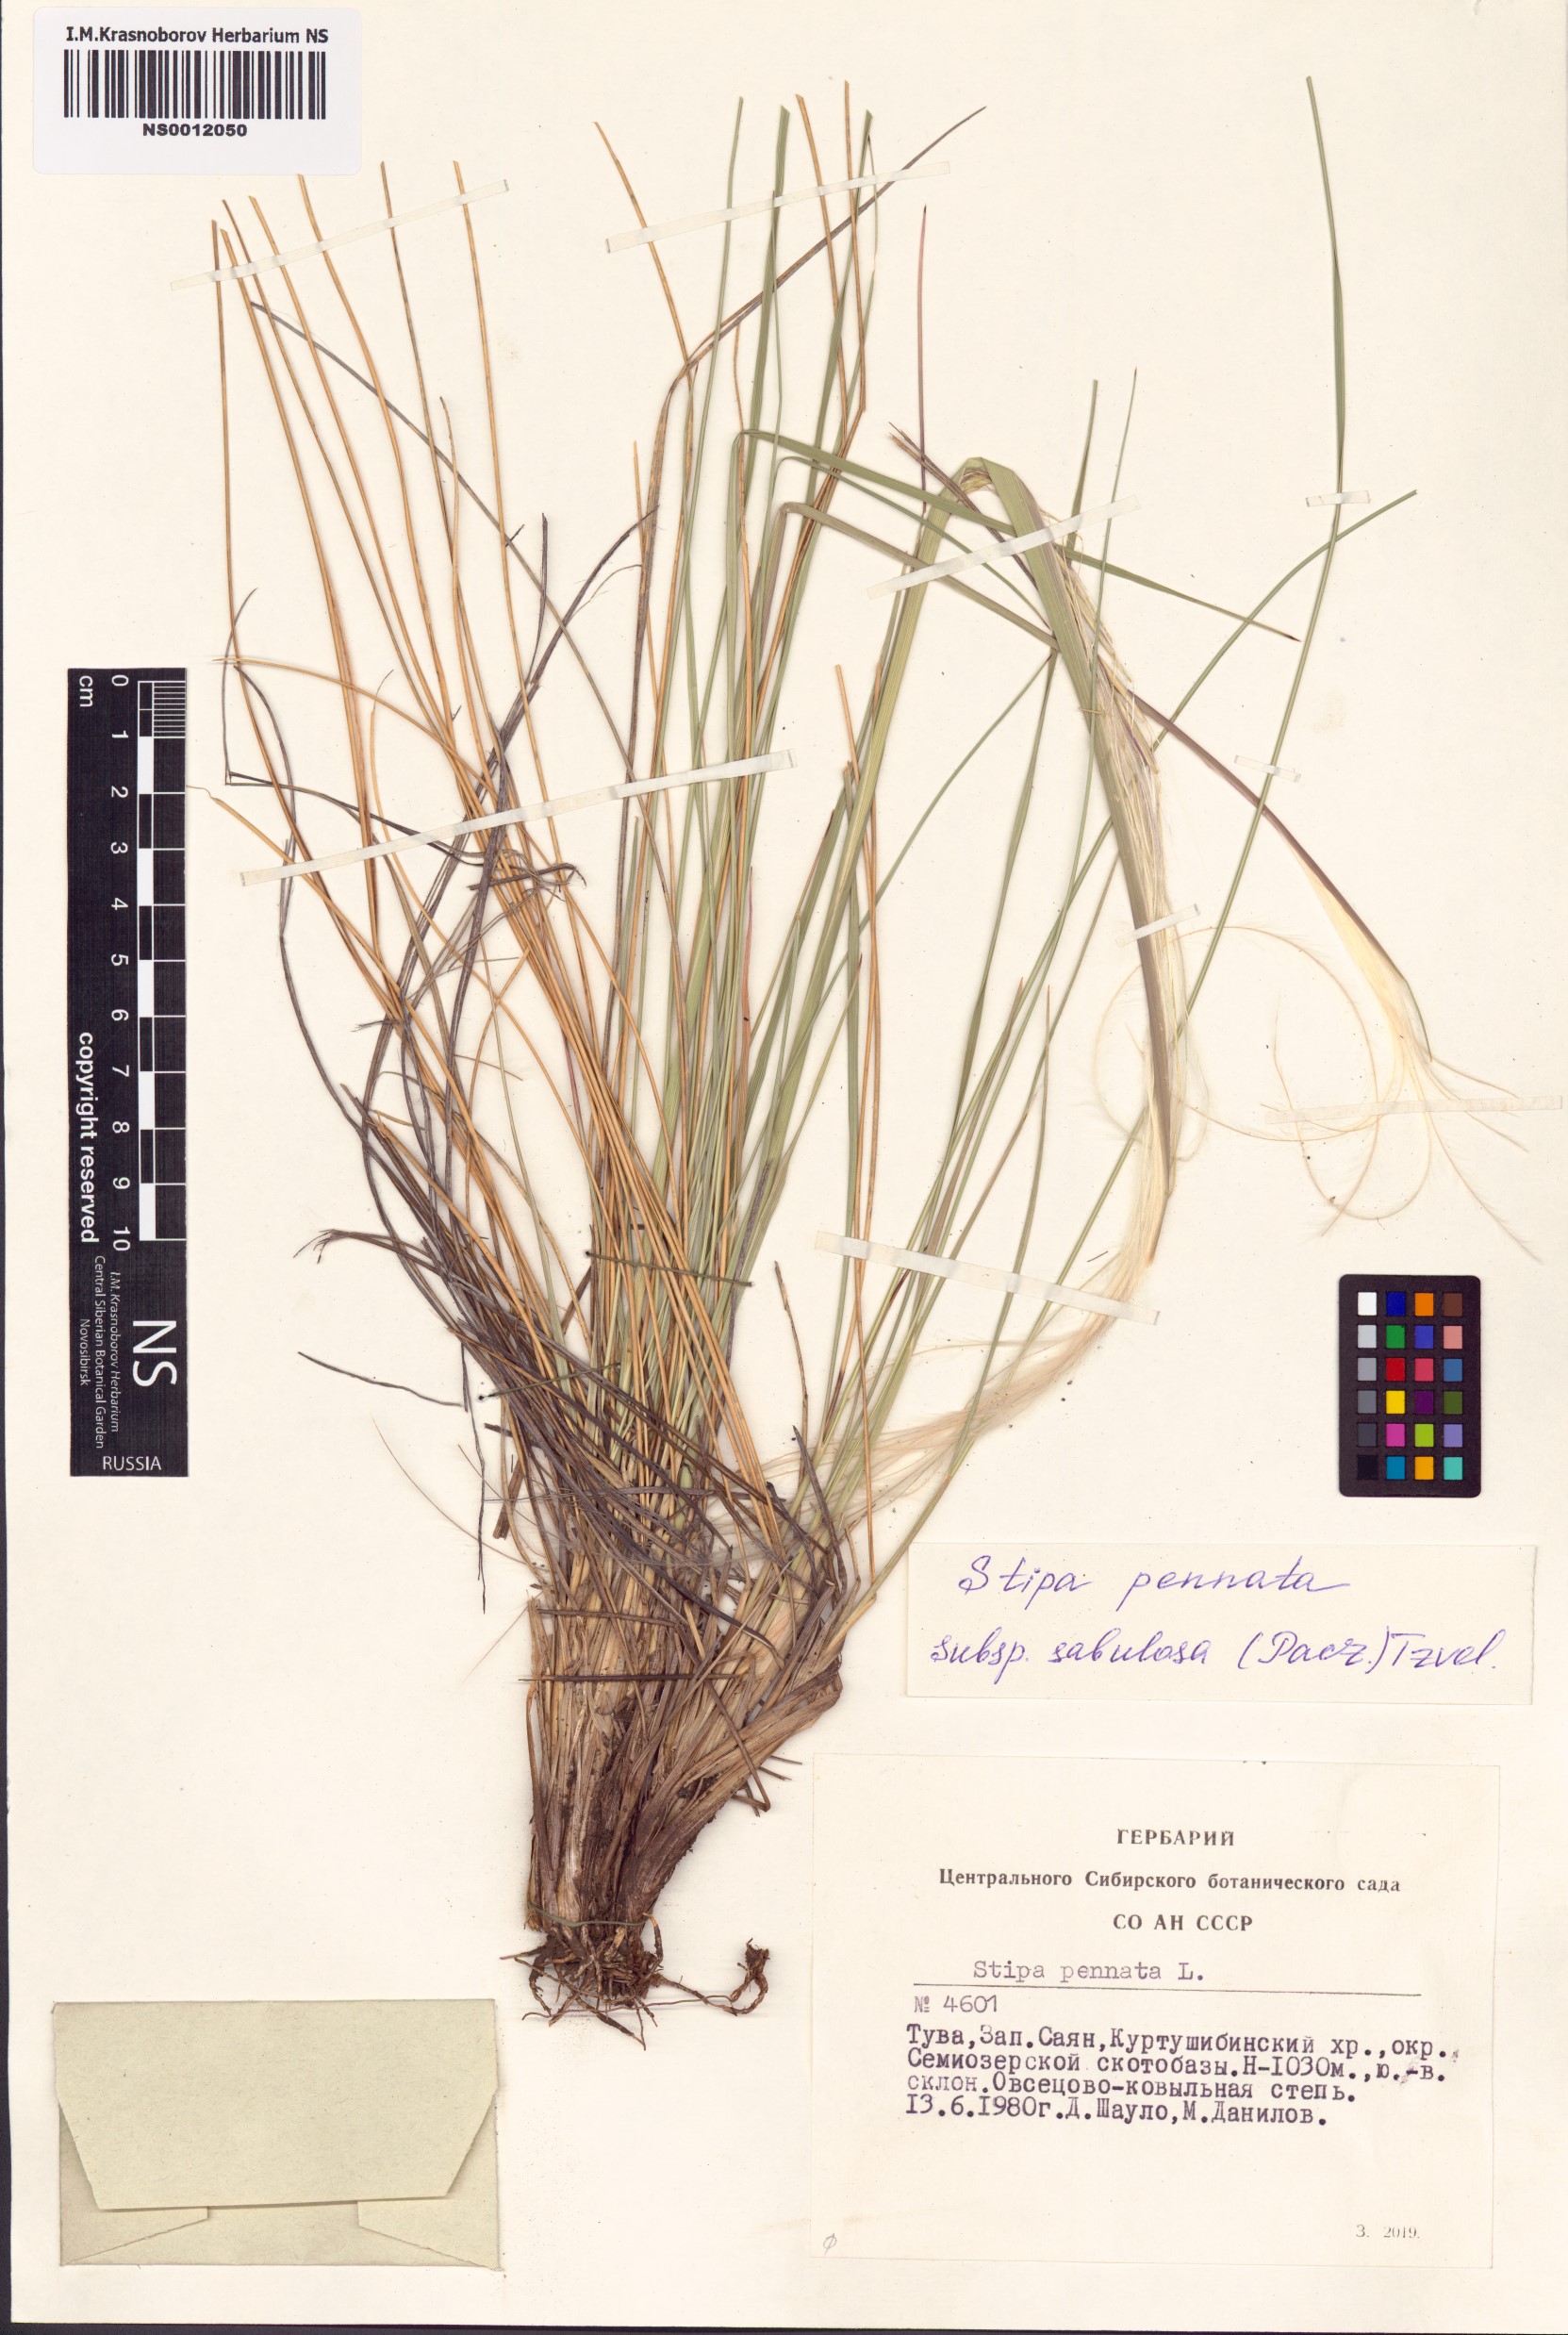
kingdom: Plantae
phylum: Tracheophyta
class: Liliopsida
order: Poales
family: Poaceae
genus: Stipa
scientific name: Stipa borysthenica
